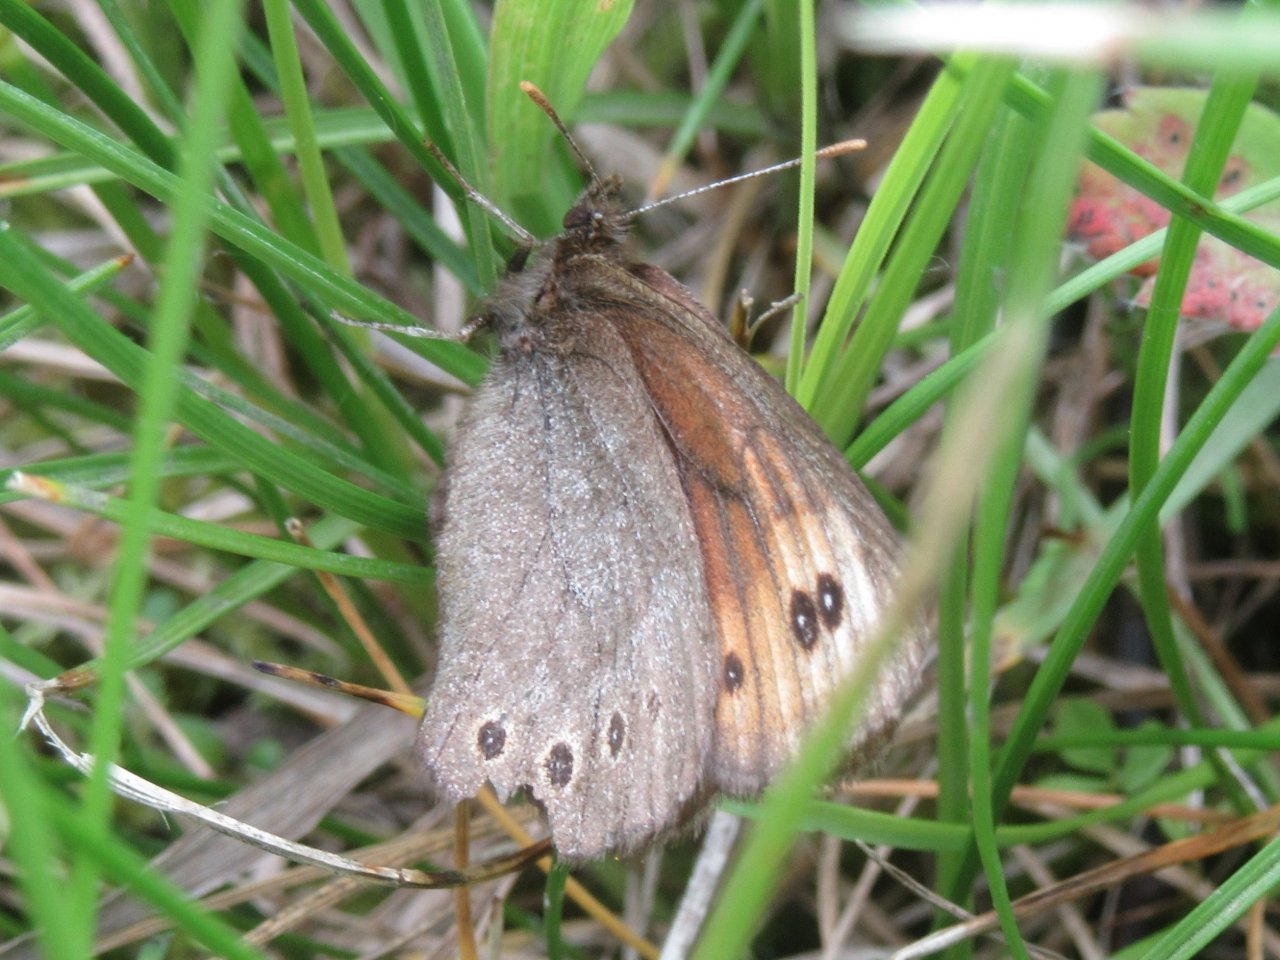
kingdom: Animalia
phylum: Arthropoda
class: Insecta
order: Lepidoptera
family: Nymphalidae
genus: Erebia
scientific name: Erebia epipsodea
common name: Common Alpine
